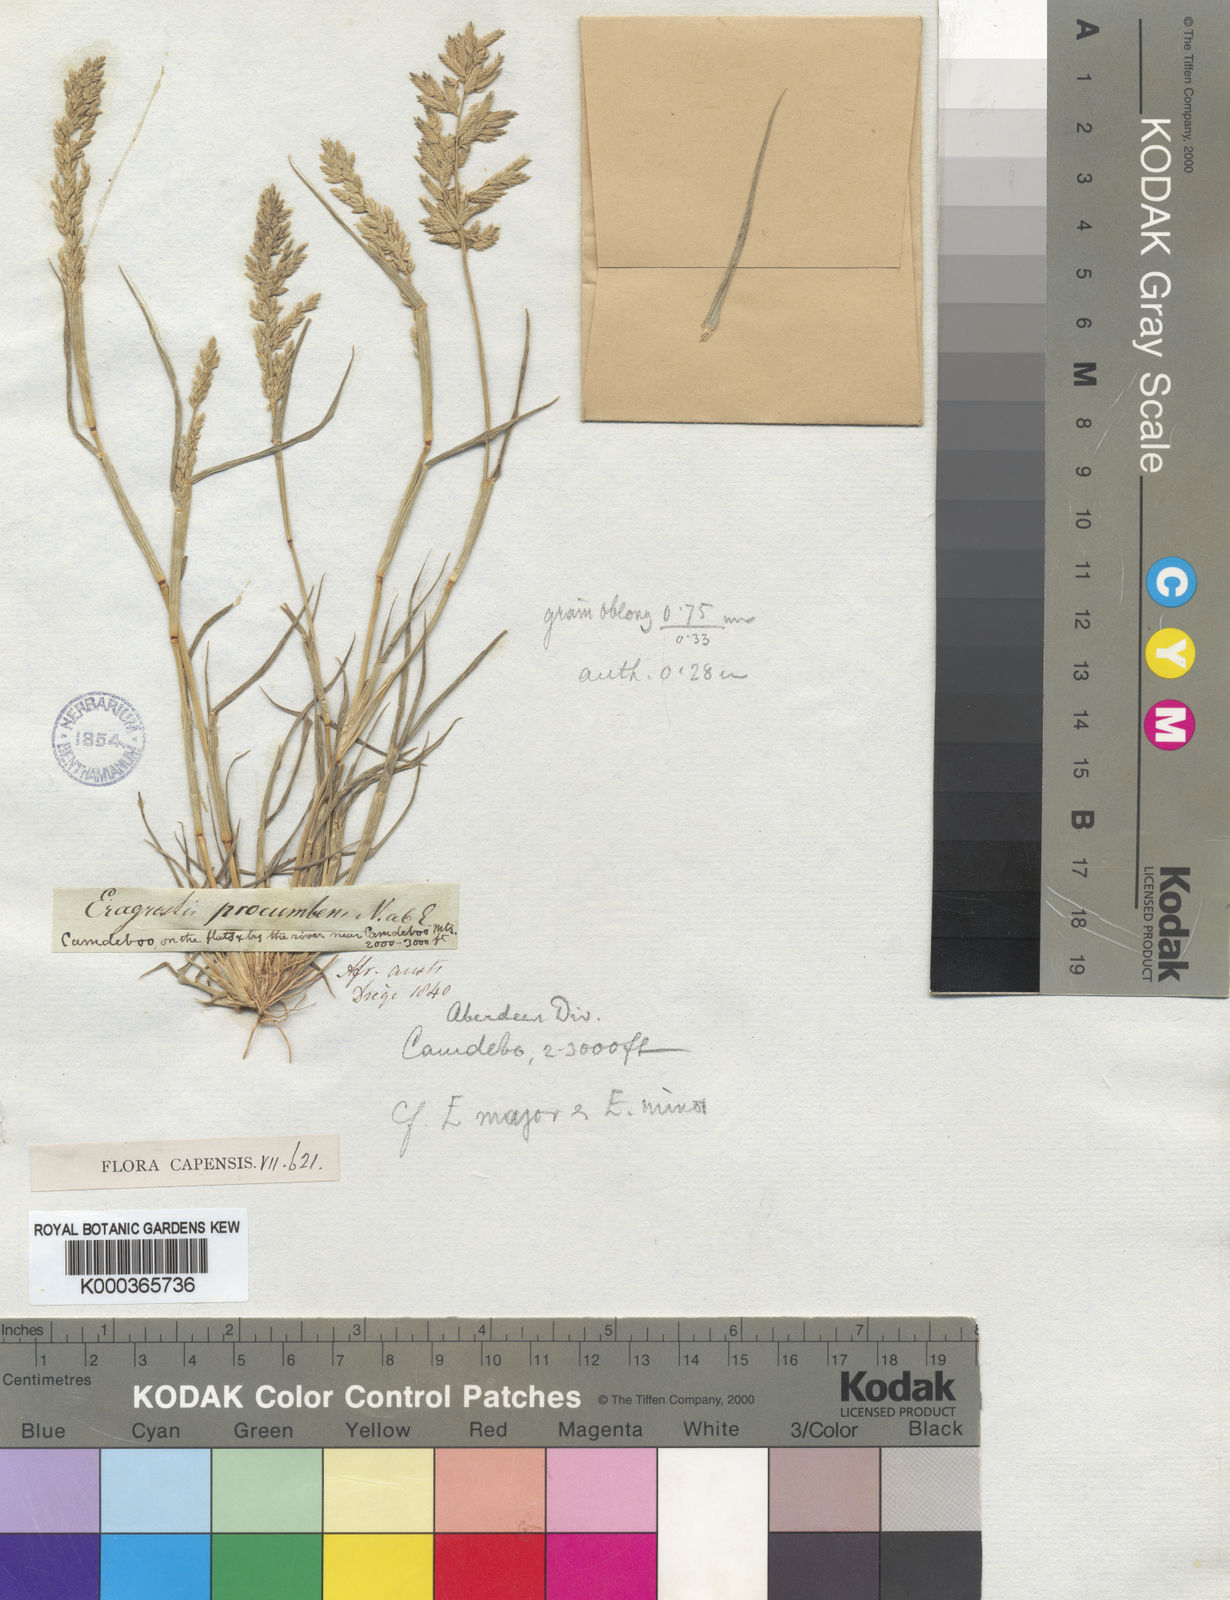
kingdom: Plantae
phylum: Tracheophyta
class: Liliopsida
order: Poales
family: Poaceae
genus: Eragrostis
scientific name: Eragrostis procumbens
